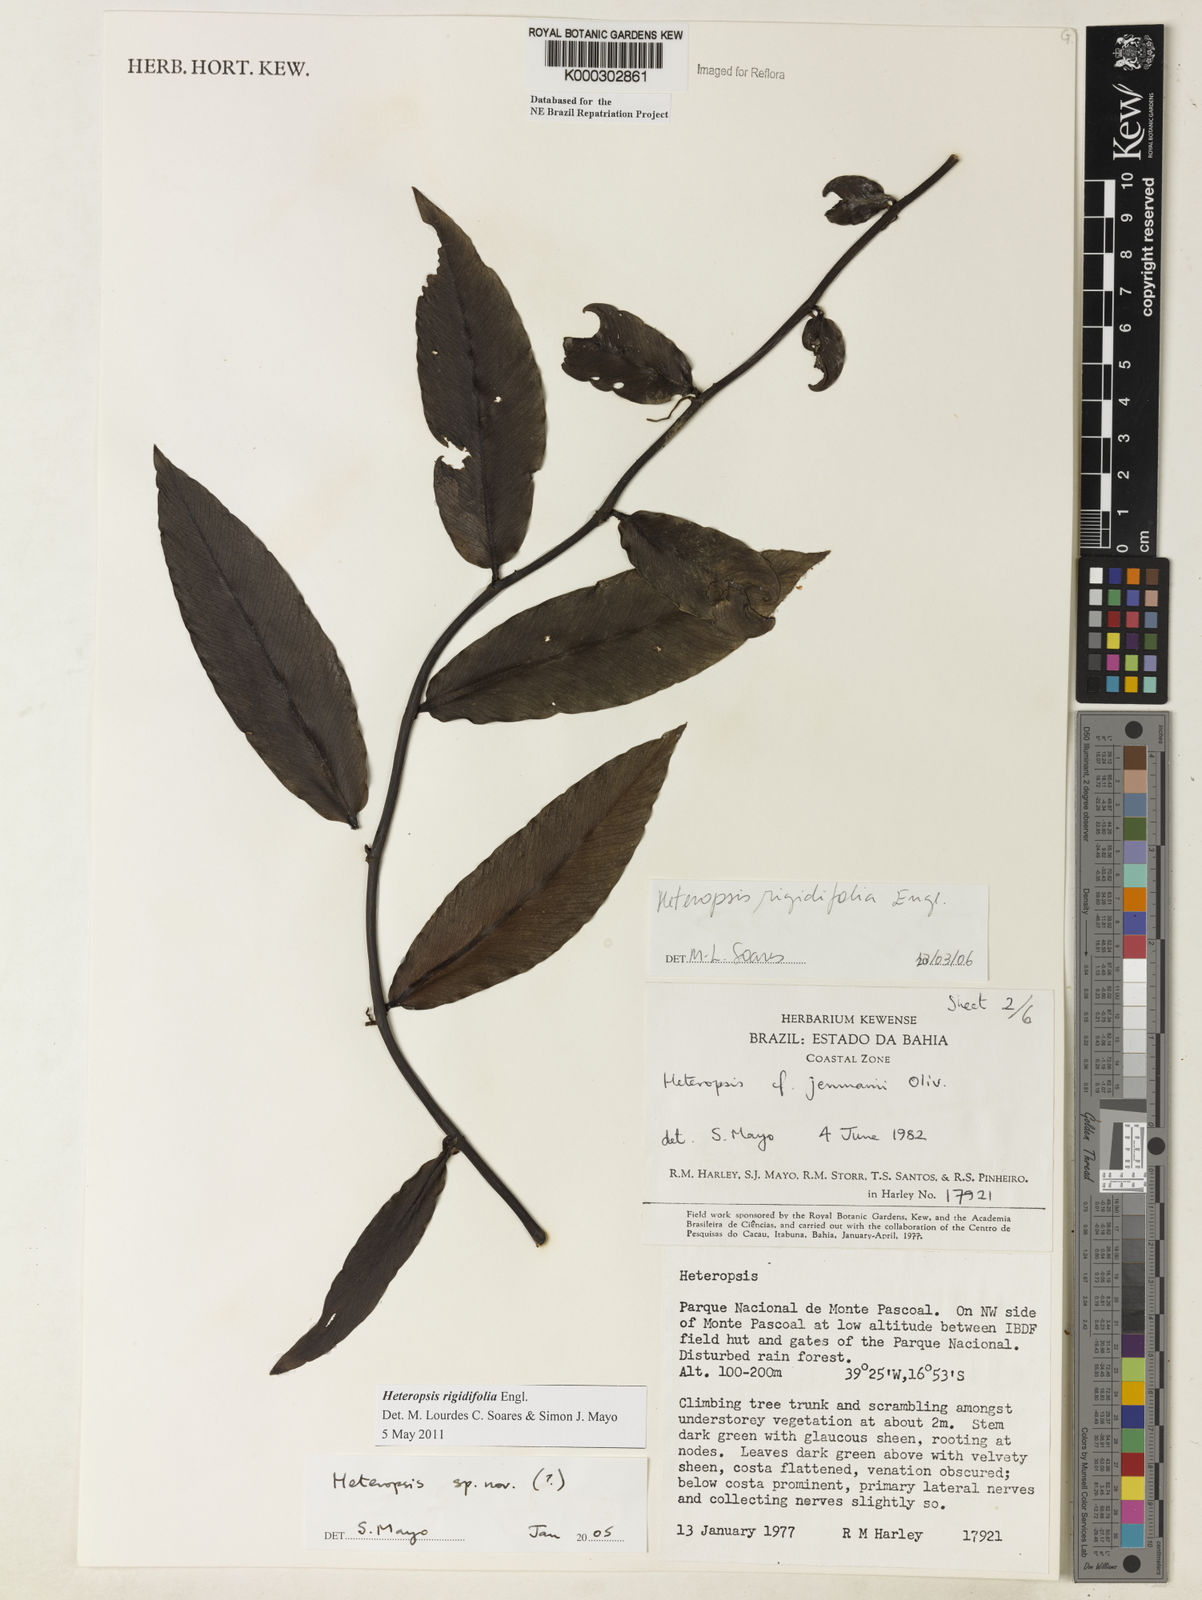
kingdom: Plantae
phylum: Tracheophyta
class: Liliopsida
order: Alismatales
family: Araceae
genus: Heteropsis
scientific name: Heteropsis
